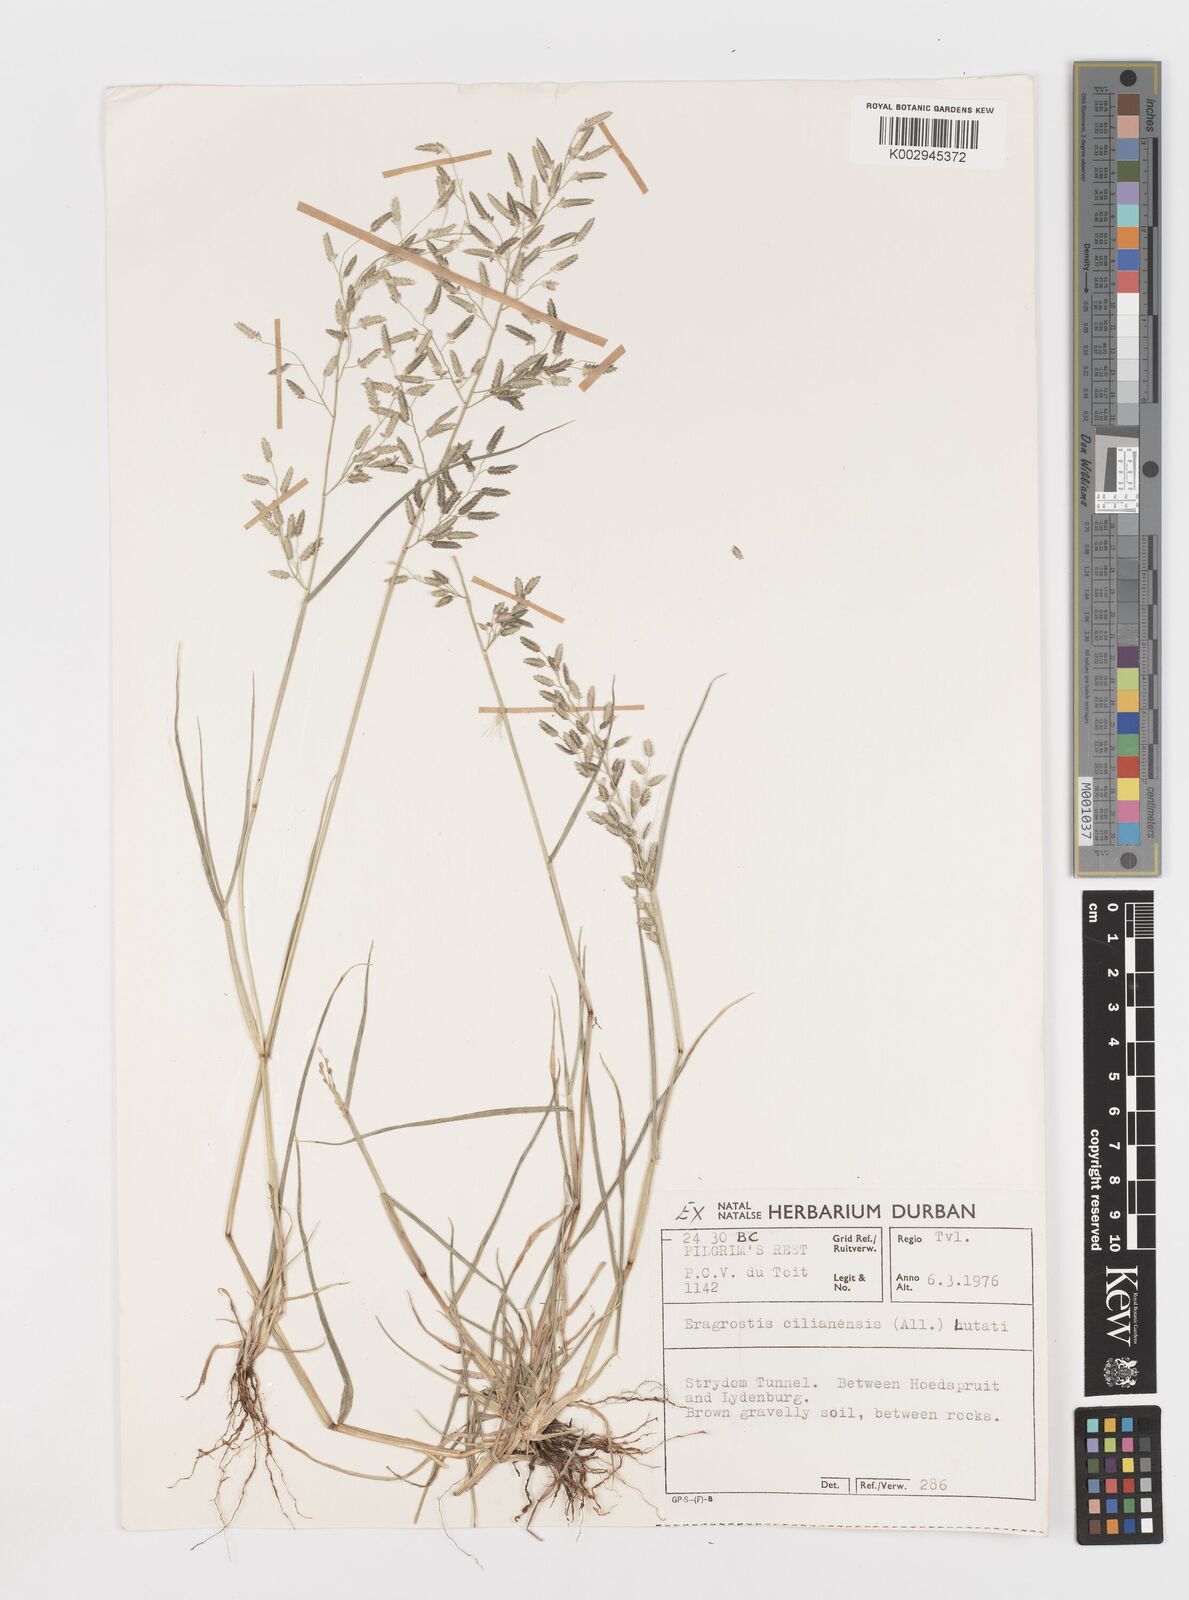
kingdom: Plantae
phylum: Tracheophyta
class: Liliopsida
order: Poales
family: Poaceae
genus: Eragrostis
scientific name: Eragrostis cilianensis
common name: Stinkgrass
